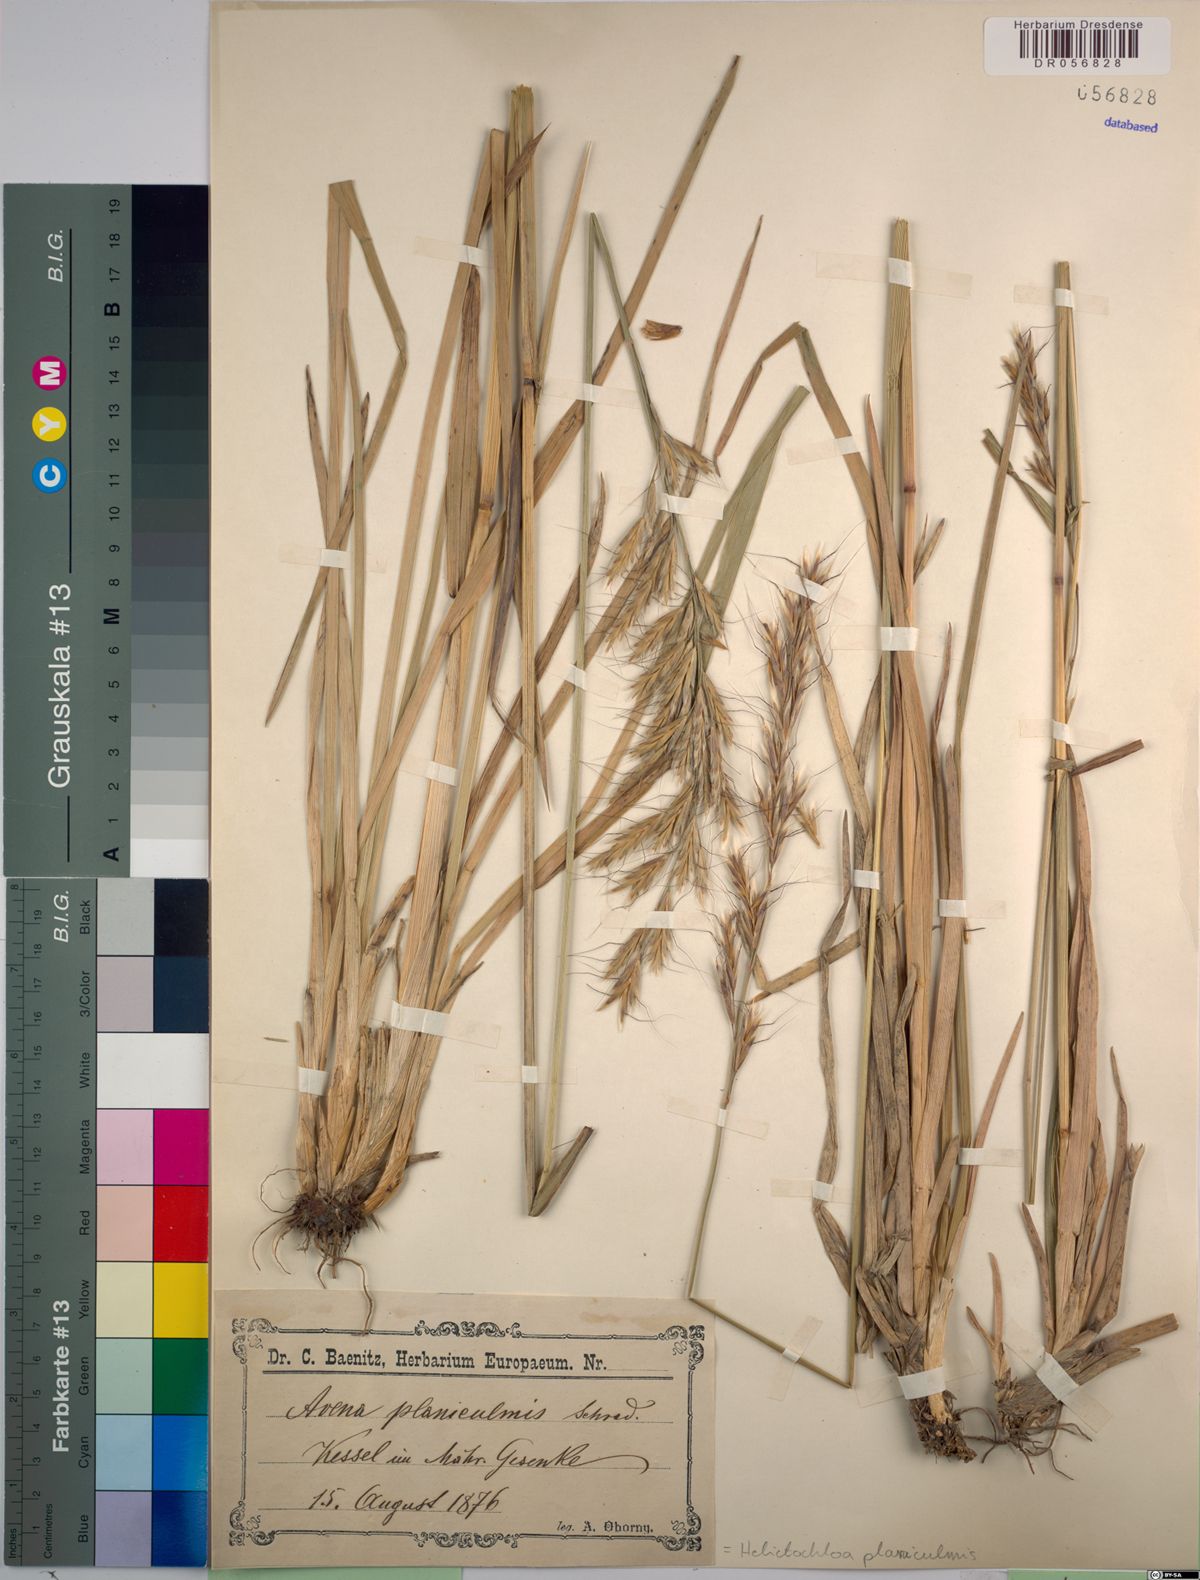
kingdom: Plantae
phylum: Tracheophyta
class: Liliopsida
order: Poales
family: Poaceae
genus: Helictochloa
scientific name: Helictochloa planiculmis
